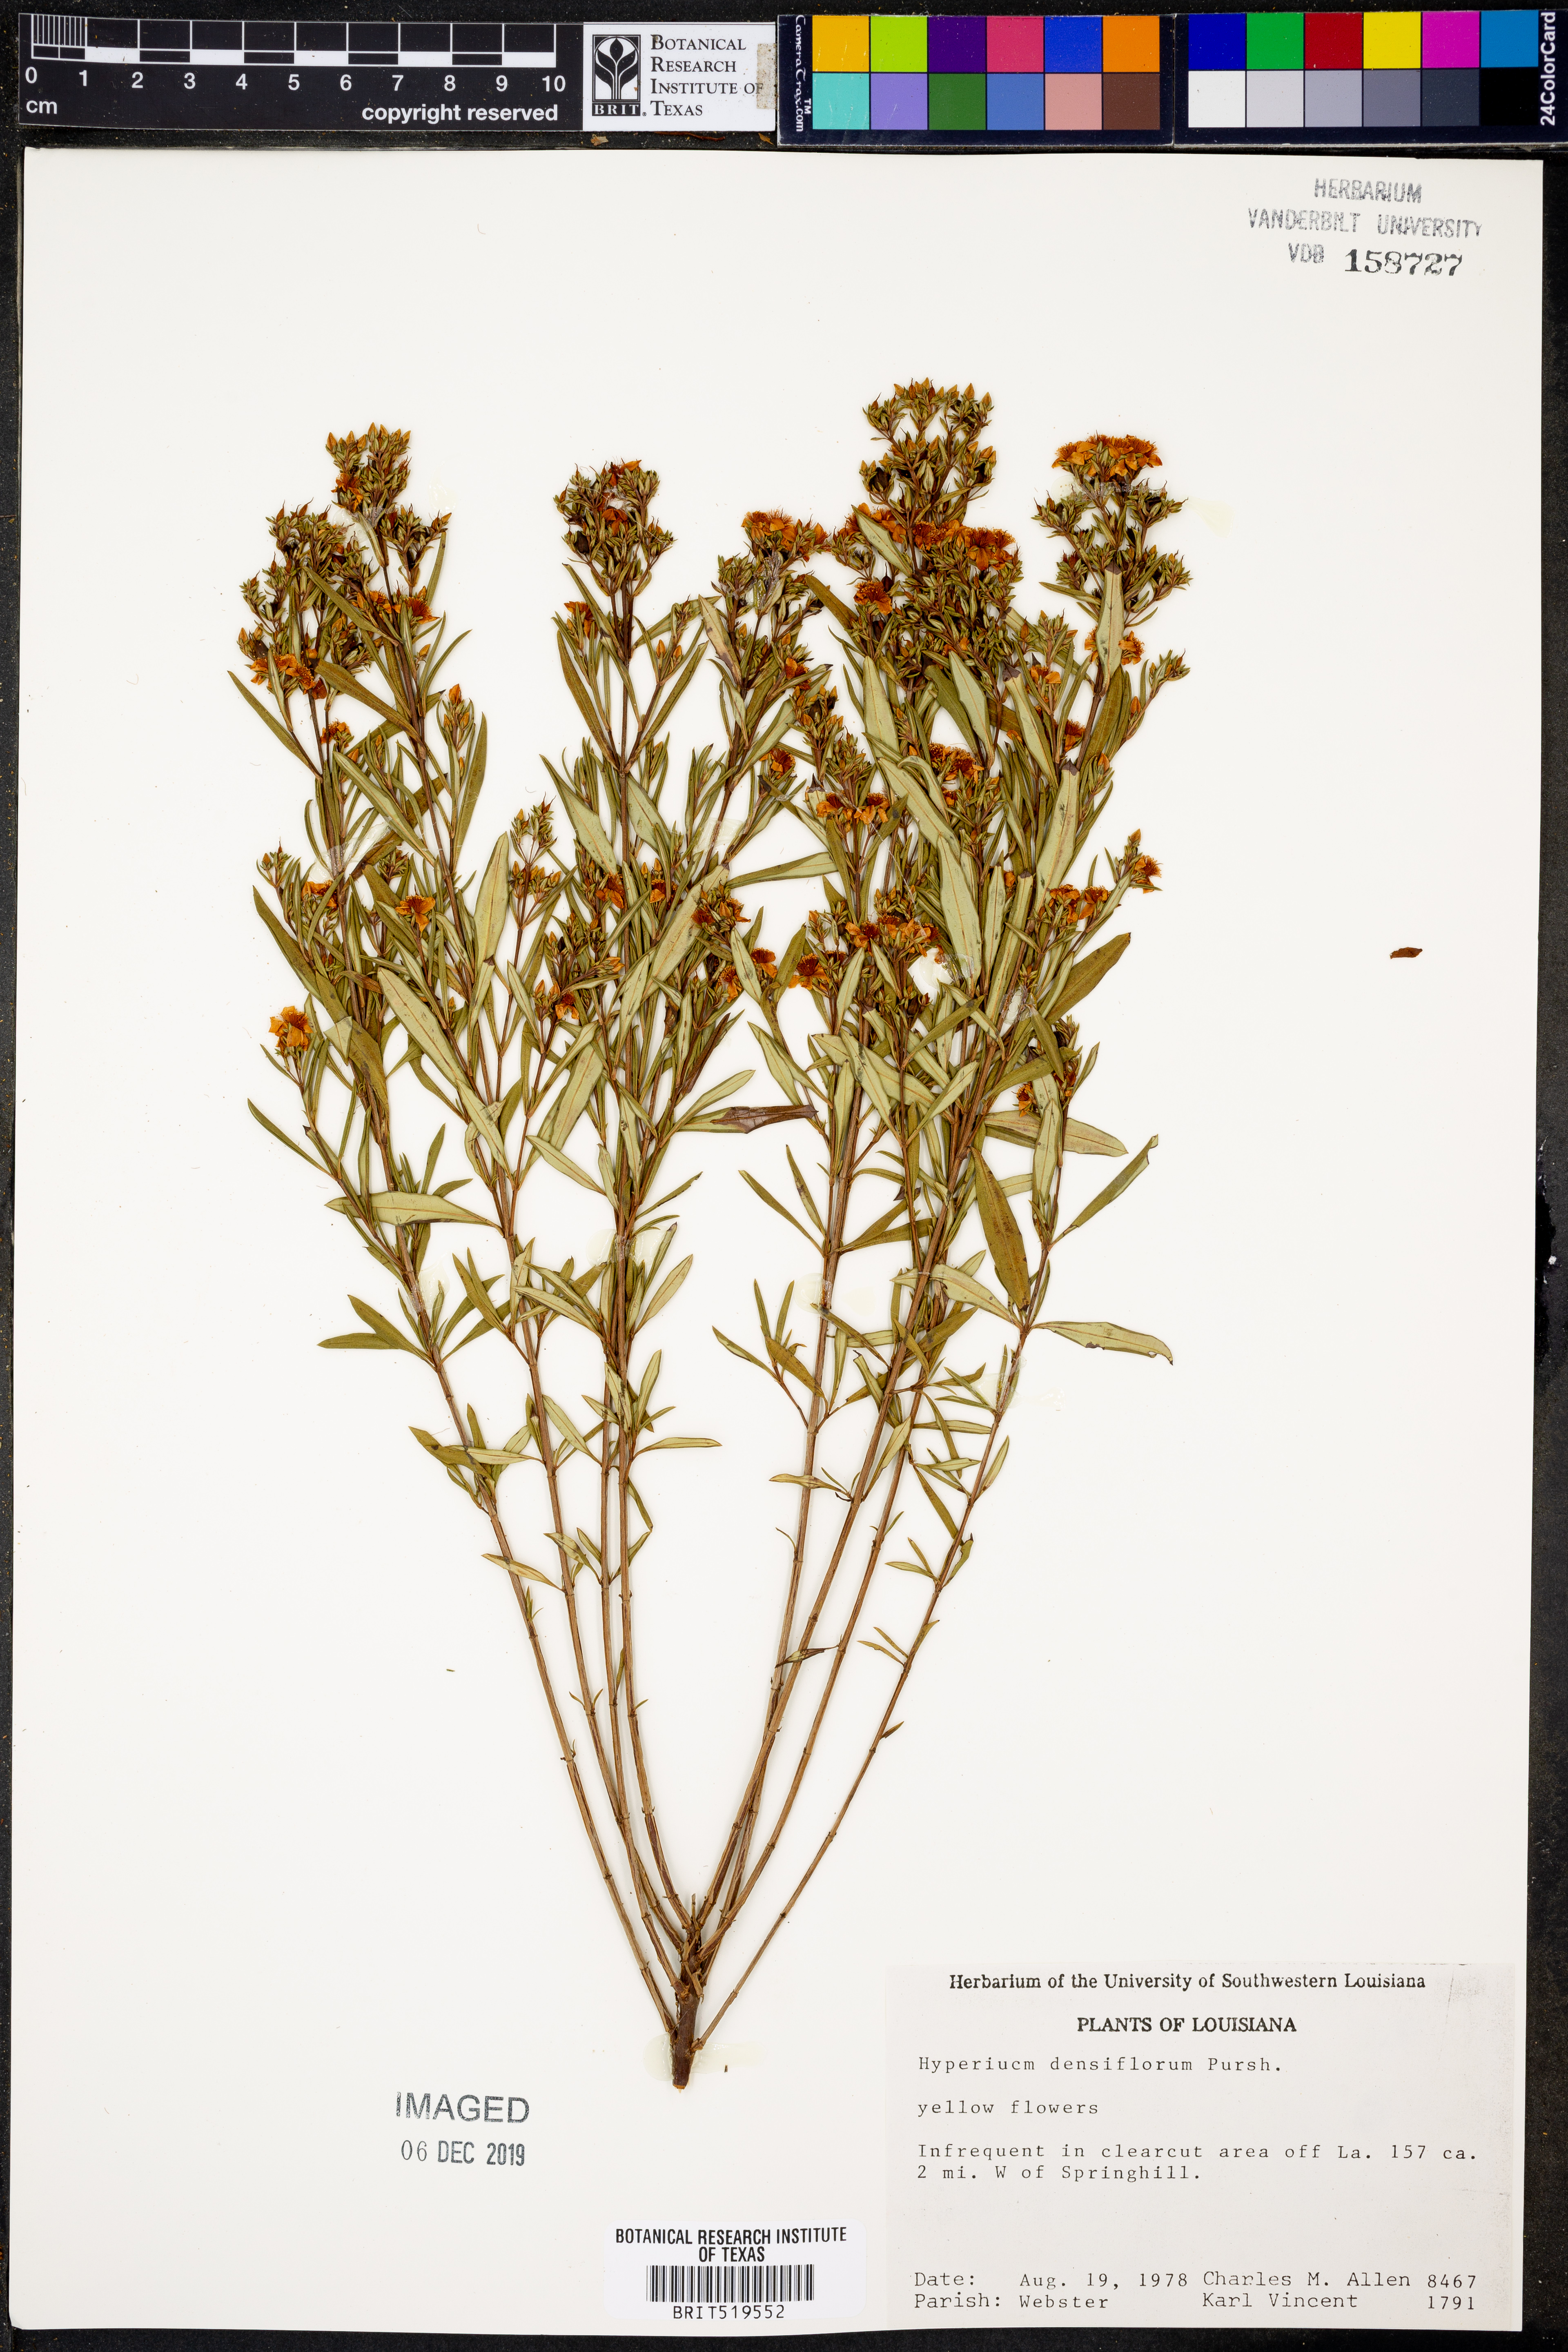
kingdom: Plantae
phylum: Tracheophyta
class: Magnoliopsida
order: Malpighiales
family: Hypericaceae
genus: Hypericum
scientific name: Hypericum densiflorum
